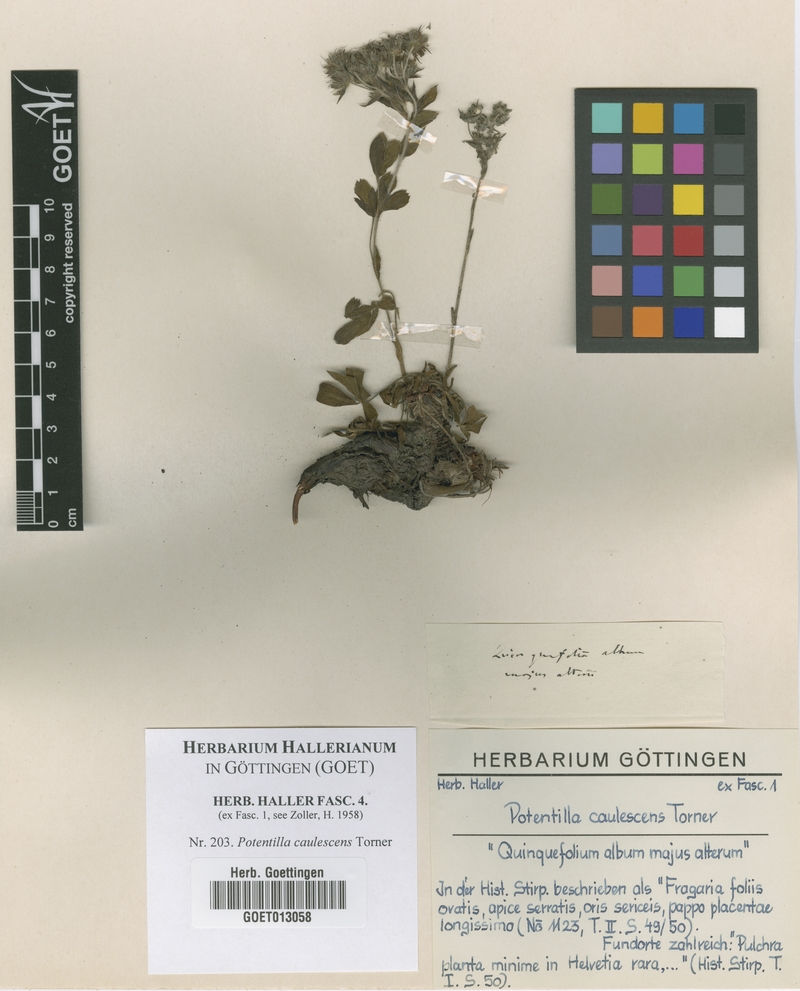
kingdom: Plantae
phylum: Tracheophyta
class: Magnoliopsida
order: Rosales
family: Rosaceae
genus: Potentilla
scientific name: Potentilla caulescens
